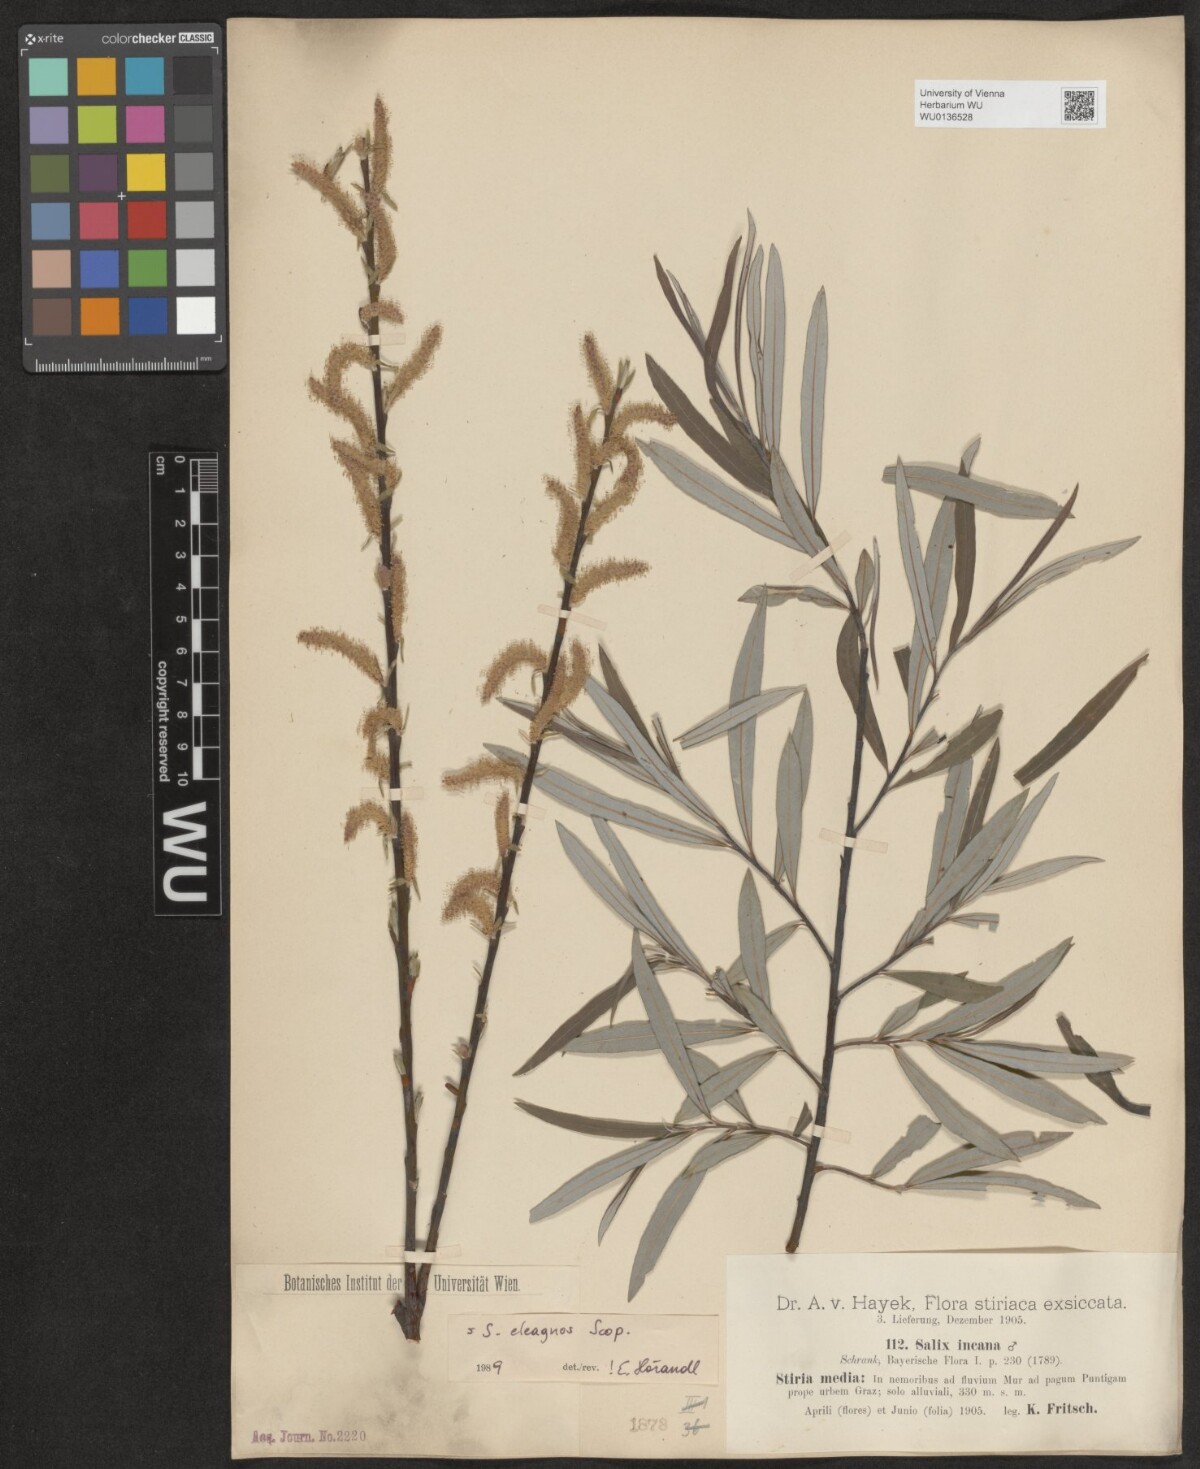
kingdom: Plantae
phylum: Tracheophyta
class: Magnoliopsida
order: Malpighiales
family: Salicaceae
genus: Salix
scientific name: Salix eleagnos
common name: Elaeagnus willow
